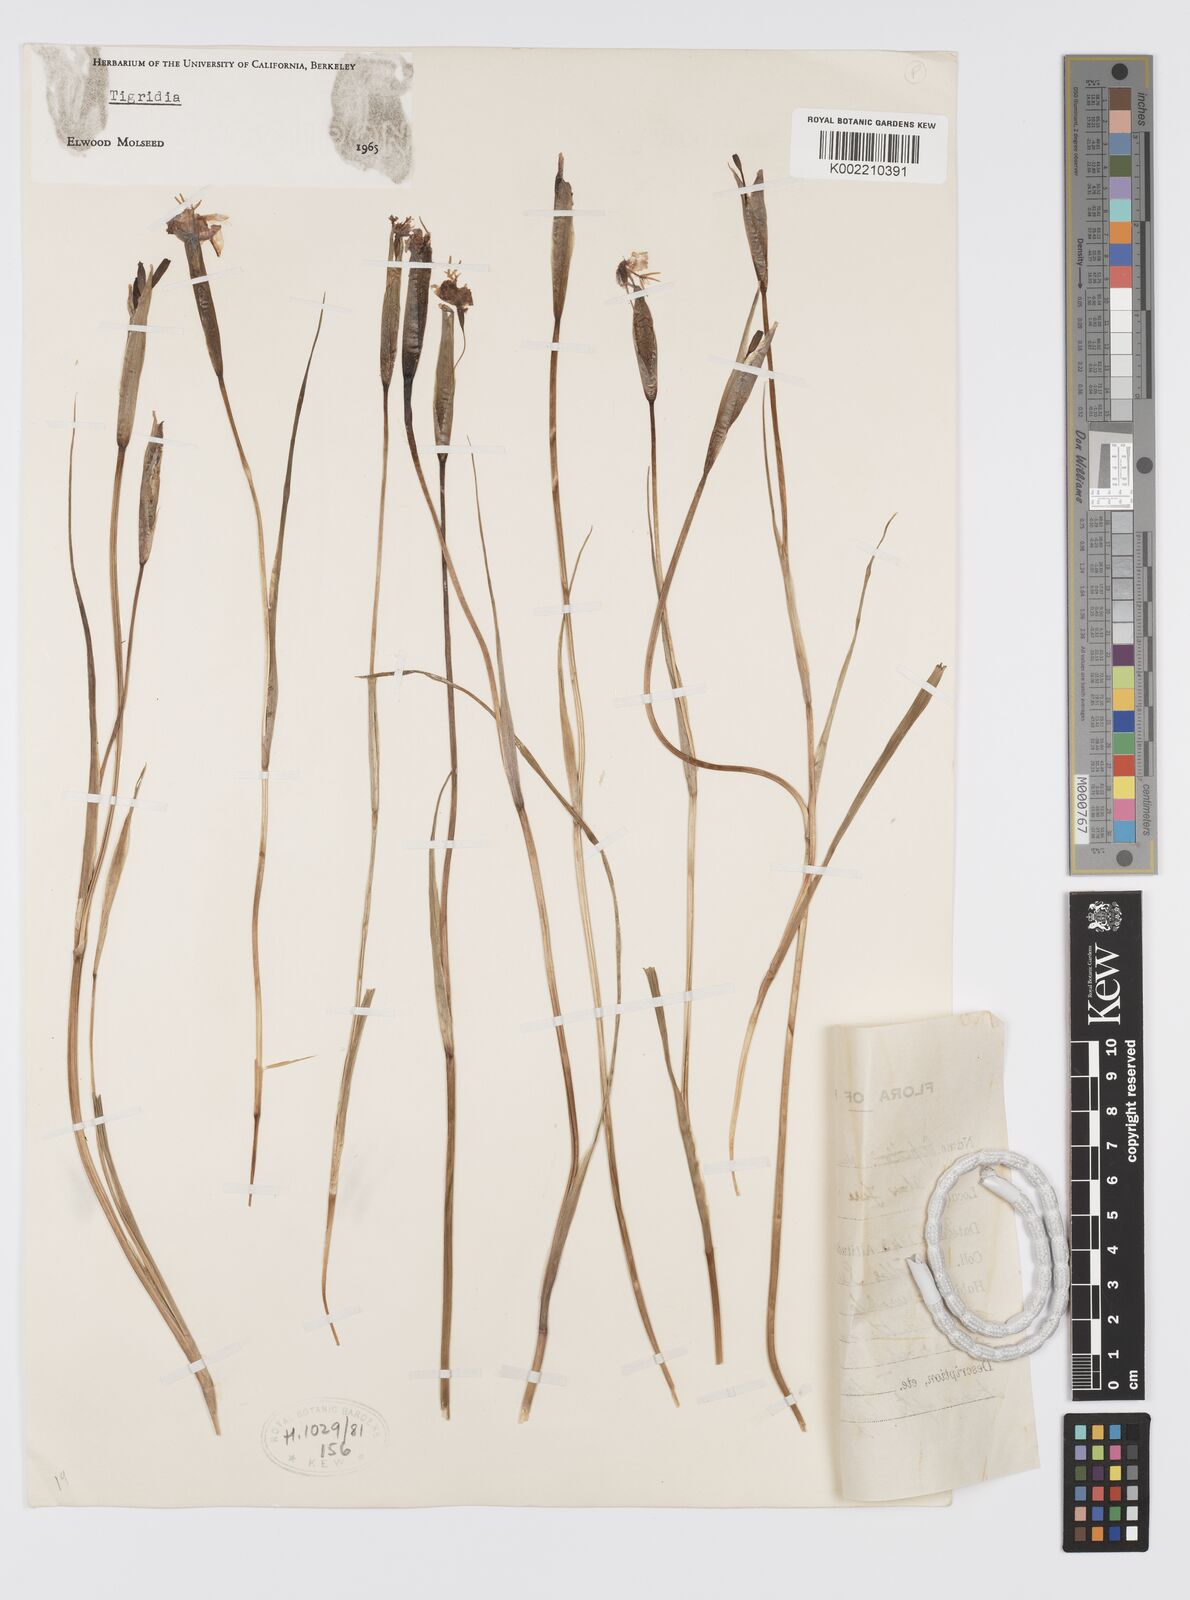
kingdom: Plantae
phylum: Tracheophyta
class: Liliopsida
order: Asparagales
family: Iridaceae
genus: Tigridia
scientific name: Tigridia
